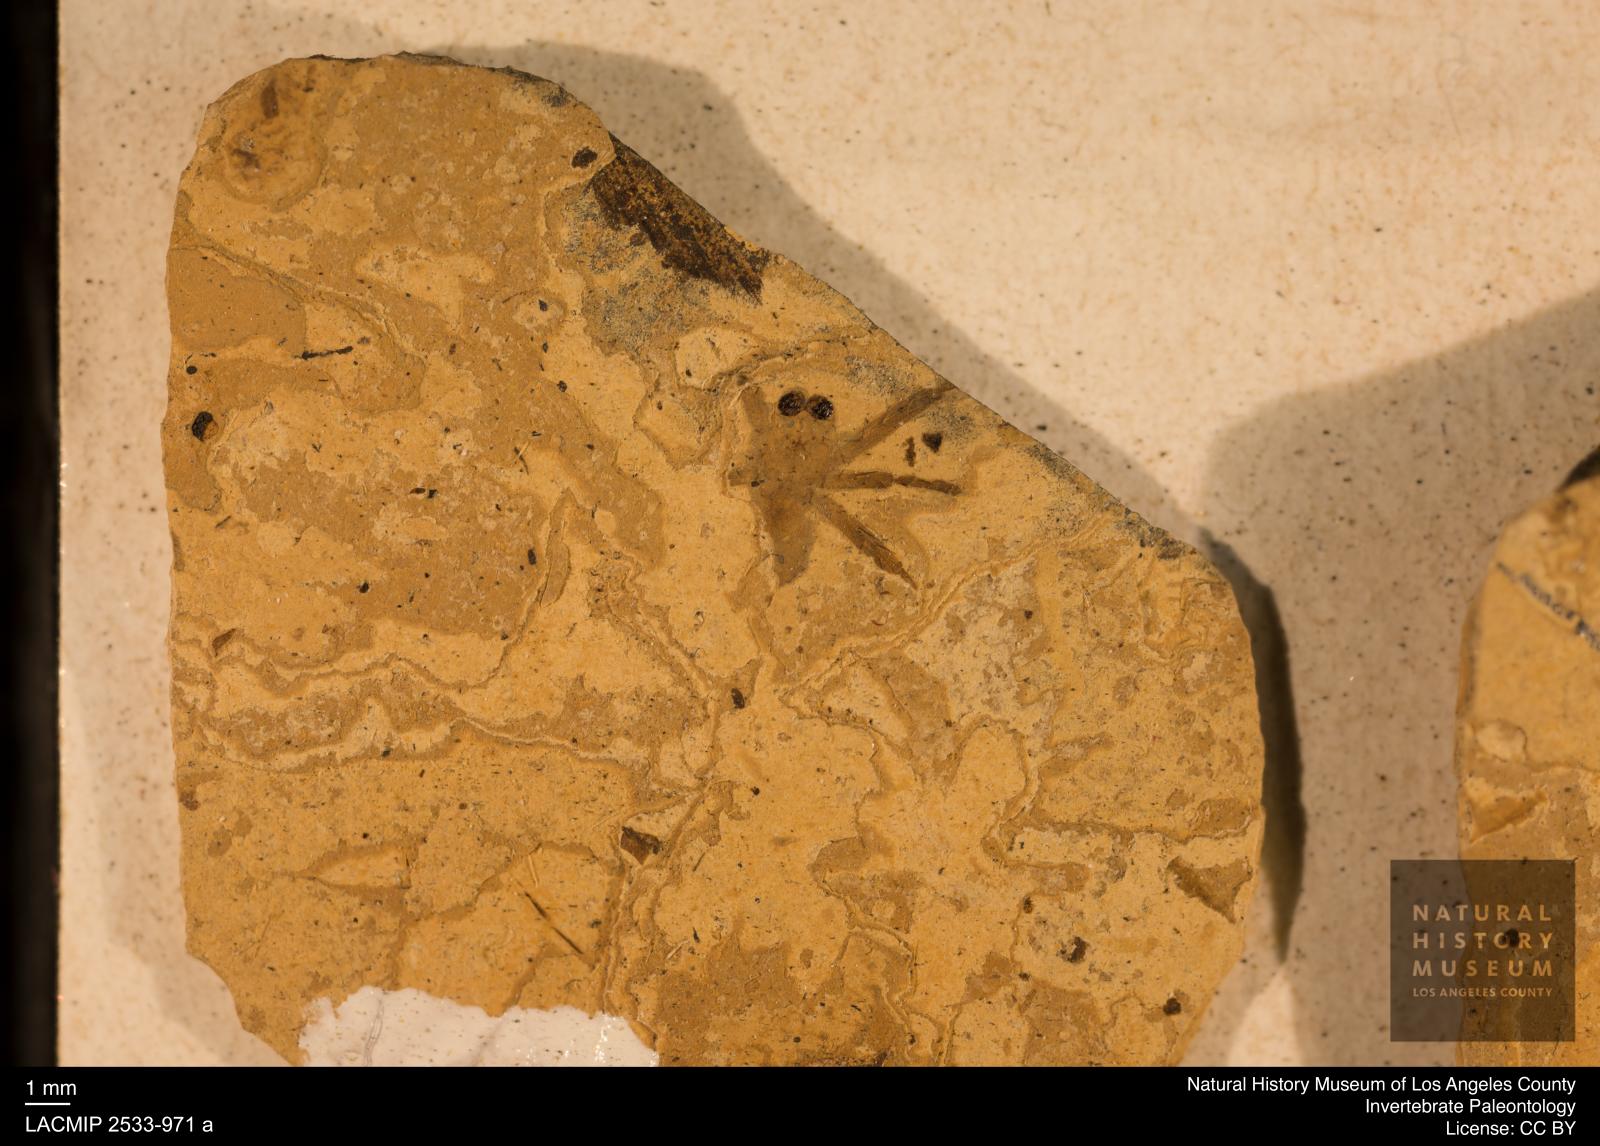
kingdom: Animalia
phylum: Arthropoda
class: Arachnida
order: Araneae
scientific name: Araneae
